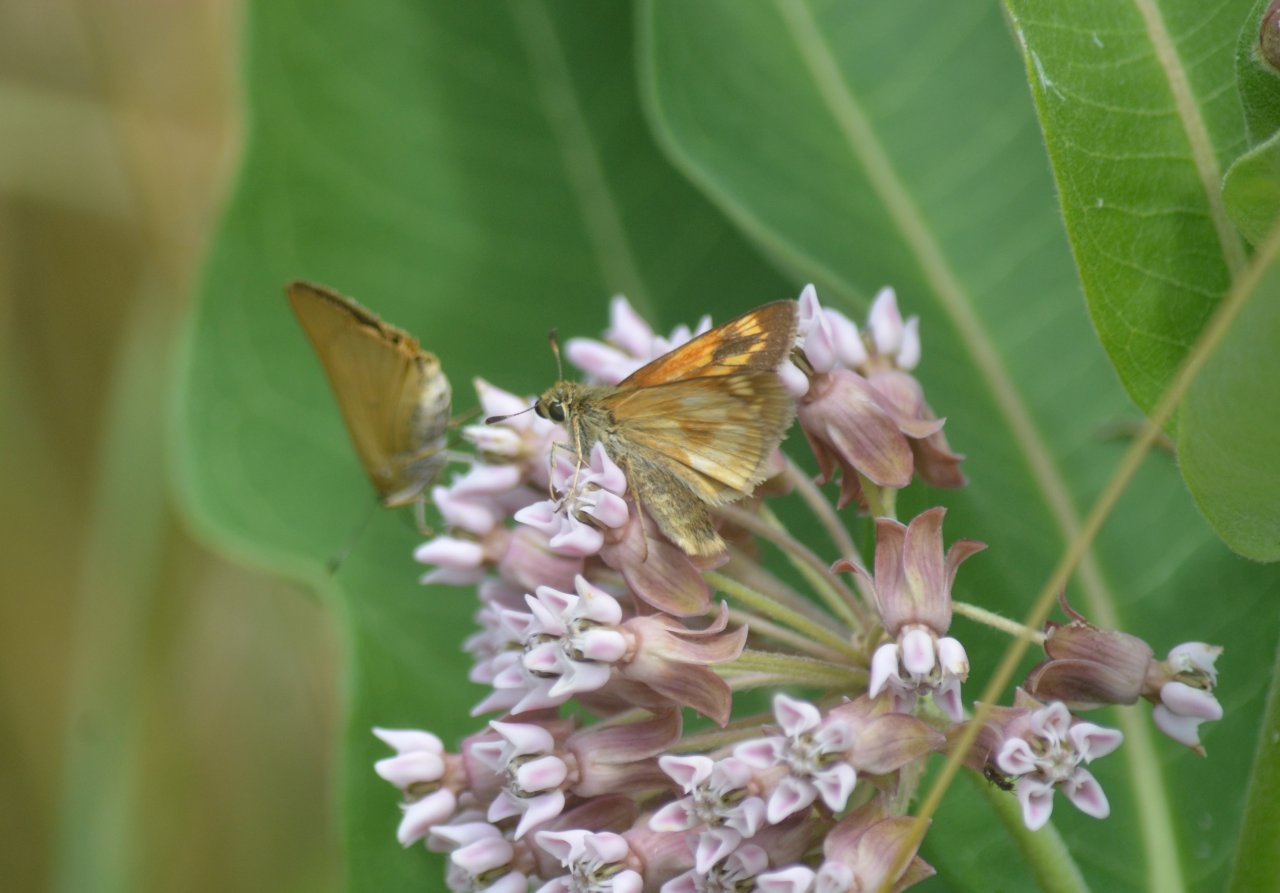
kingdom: Animalia
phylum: Arthropoda
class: Insecta
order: Lepidoptera
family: Hesperiidae
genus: Polites
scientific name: Polites
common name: Long Dash Skipper
